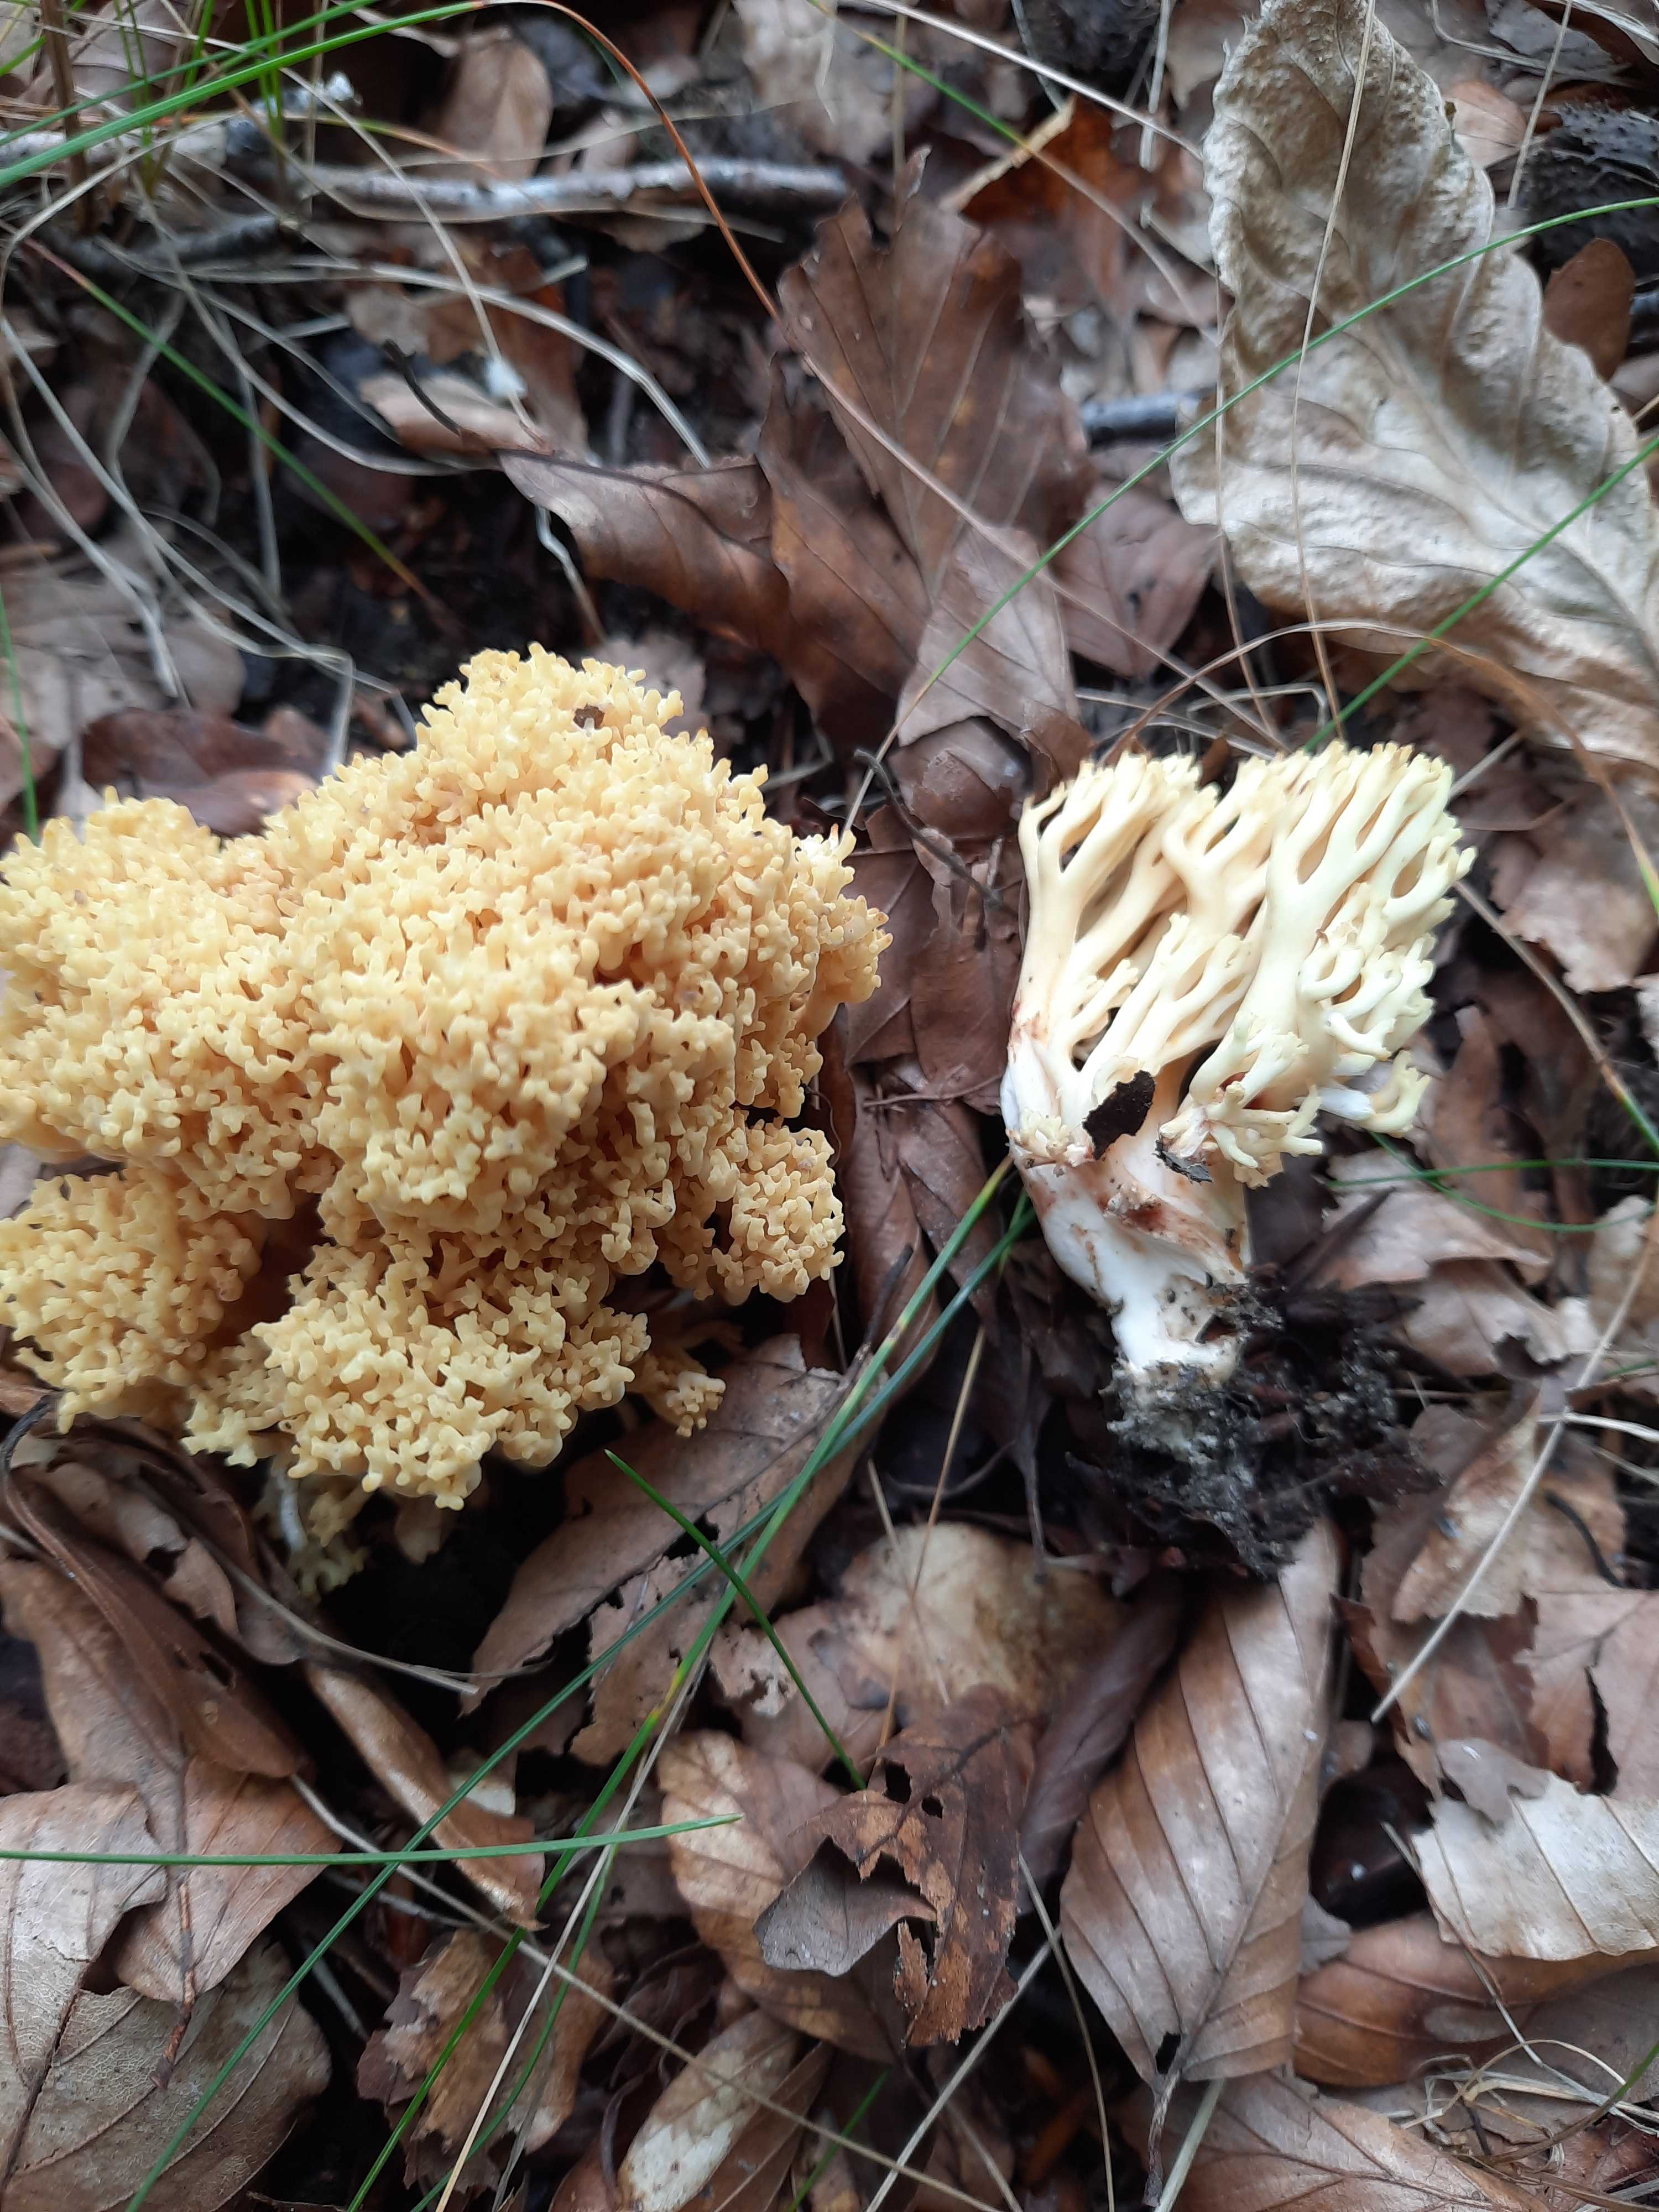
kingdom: Fungi
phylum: Basidiomycota
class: Agaricomycetes
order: Gomphales
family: Gomphaceae
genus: Ramaria
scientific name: Ramaria sanguinea
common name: blodplettet koralsvamp
